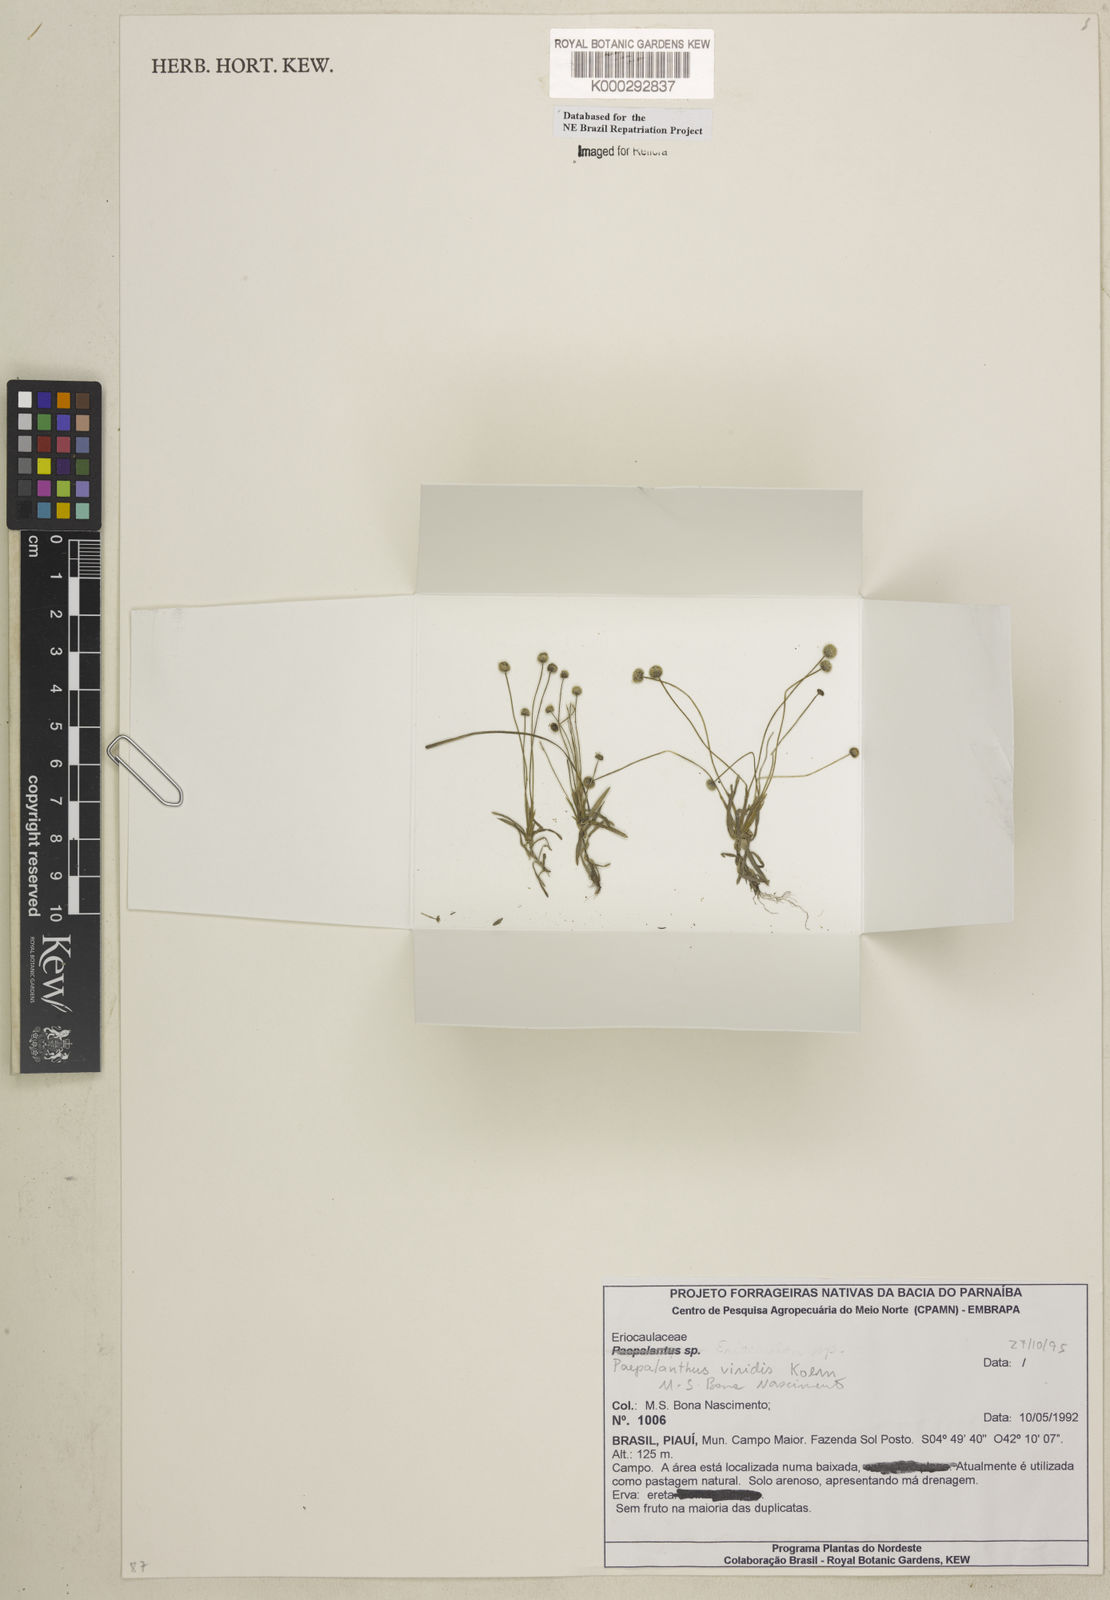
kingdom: Plantae
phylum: Tracheophyta
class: Liliopsida
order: Poales
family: Eriocaulaceae
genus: Paepalanthus
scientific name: Paepalanthus
